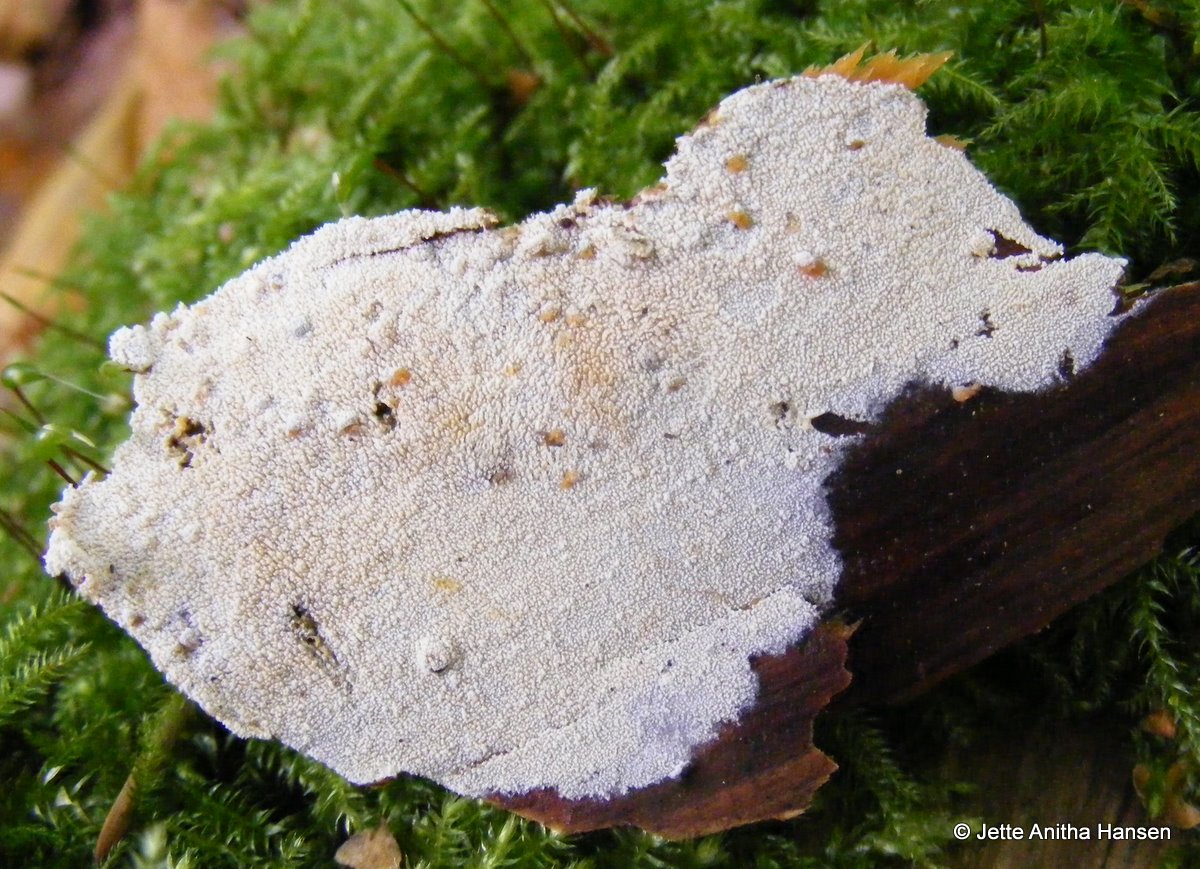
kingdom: Fungi
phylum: Basidiomycota
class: Agaricomycetes
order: Hymenochaetales
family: Schizoporaceae
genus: Xylodon
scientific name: Xylodon nesporii
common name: fintandet tandsvamp
